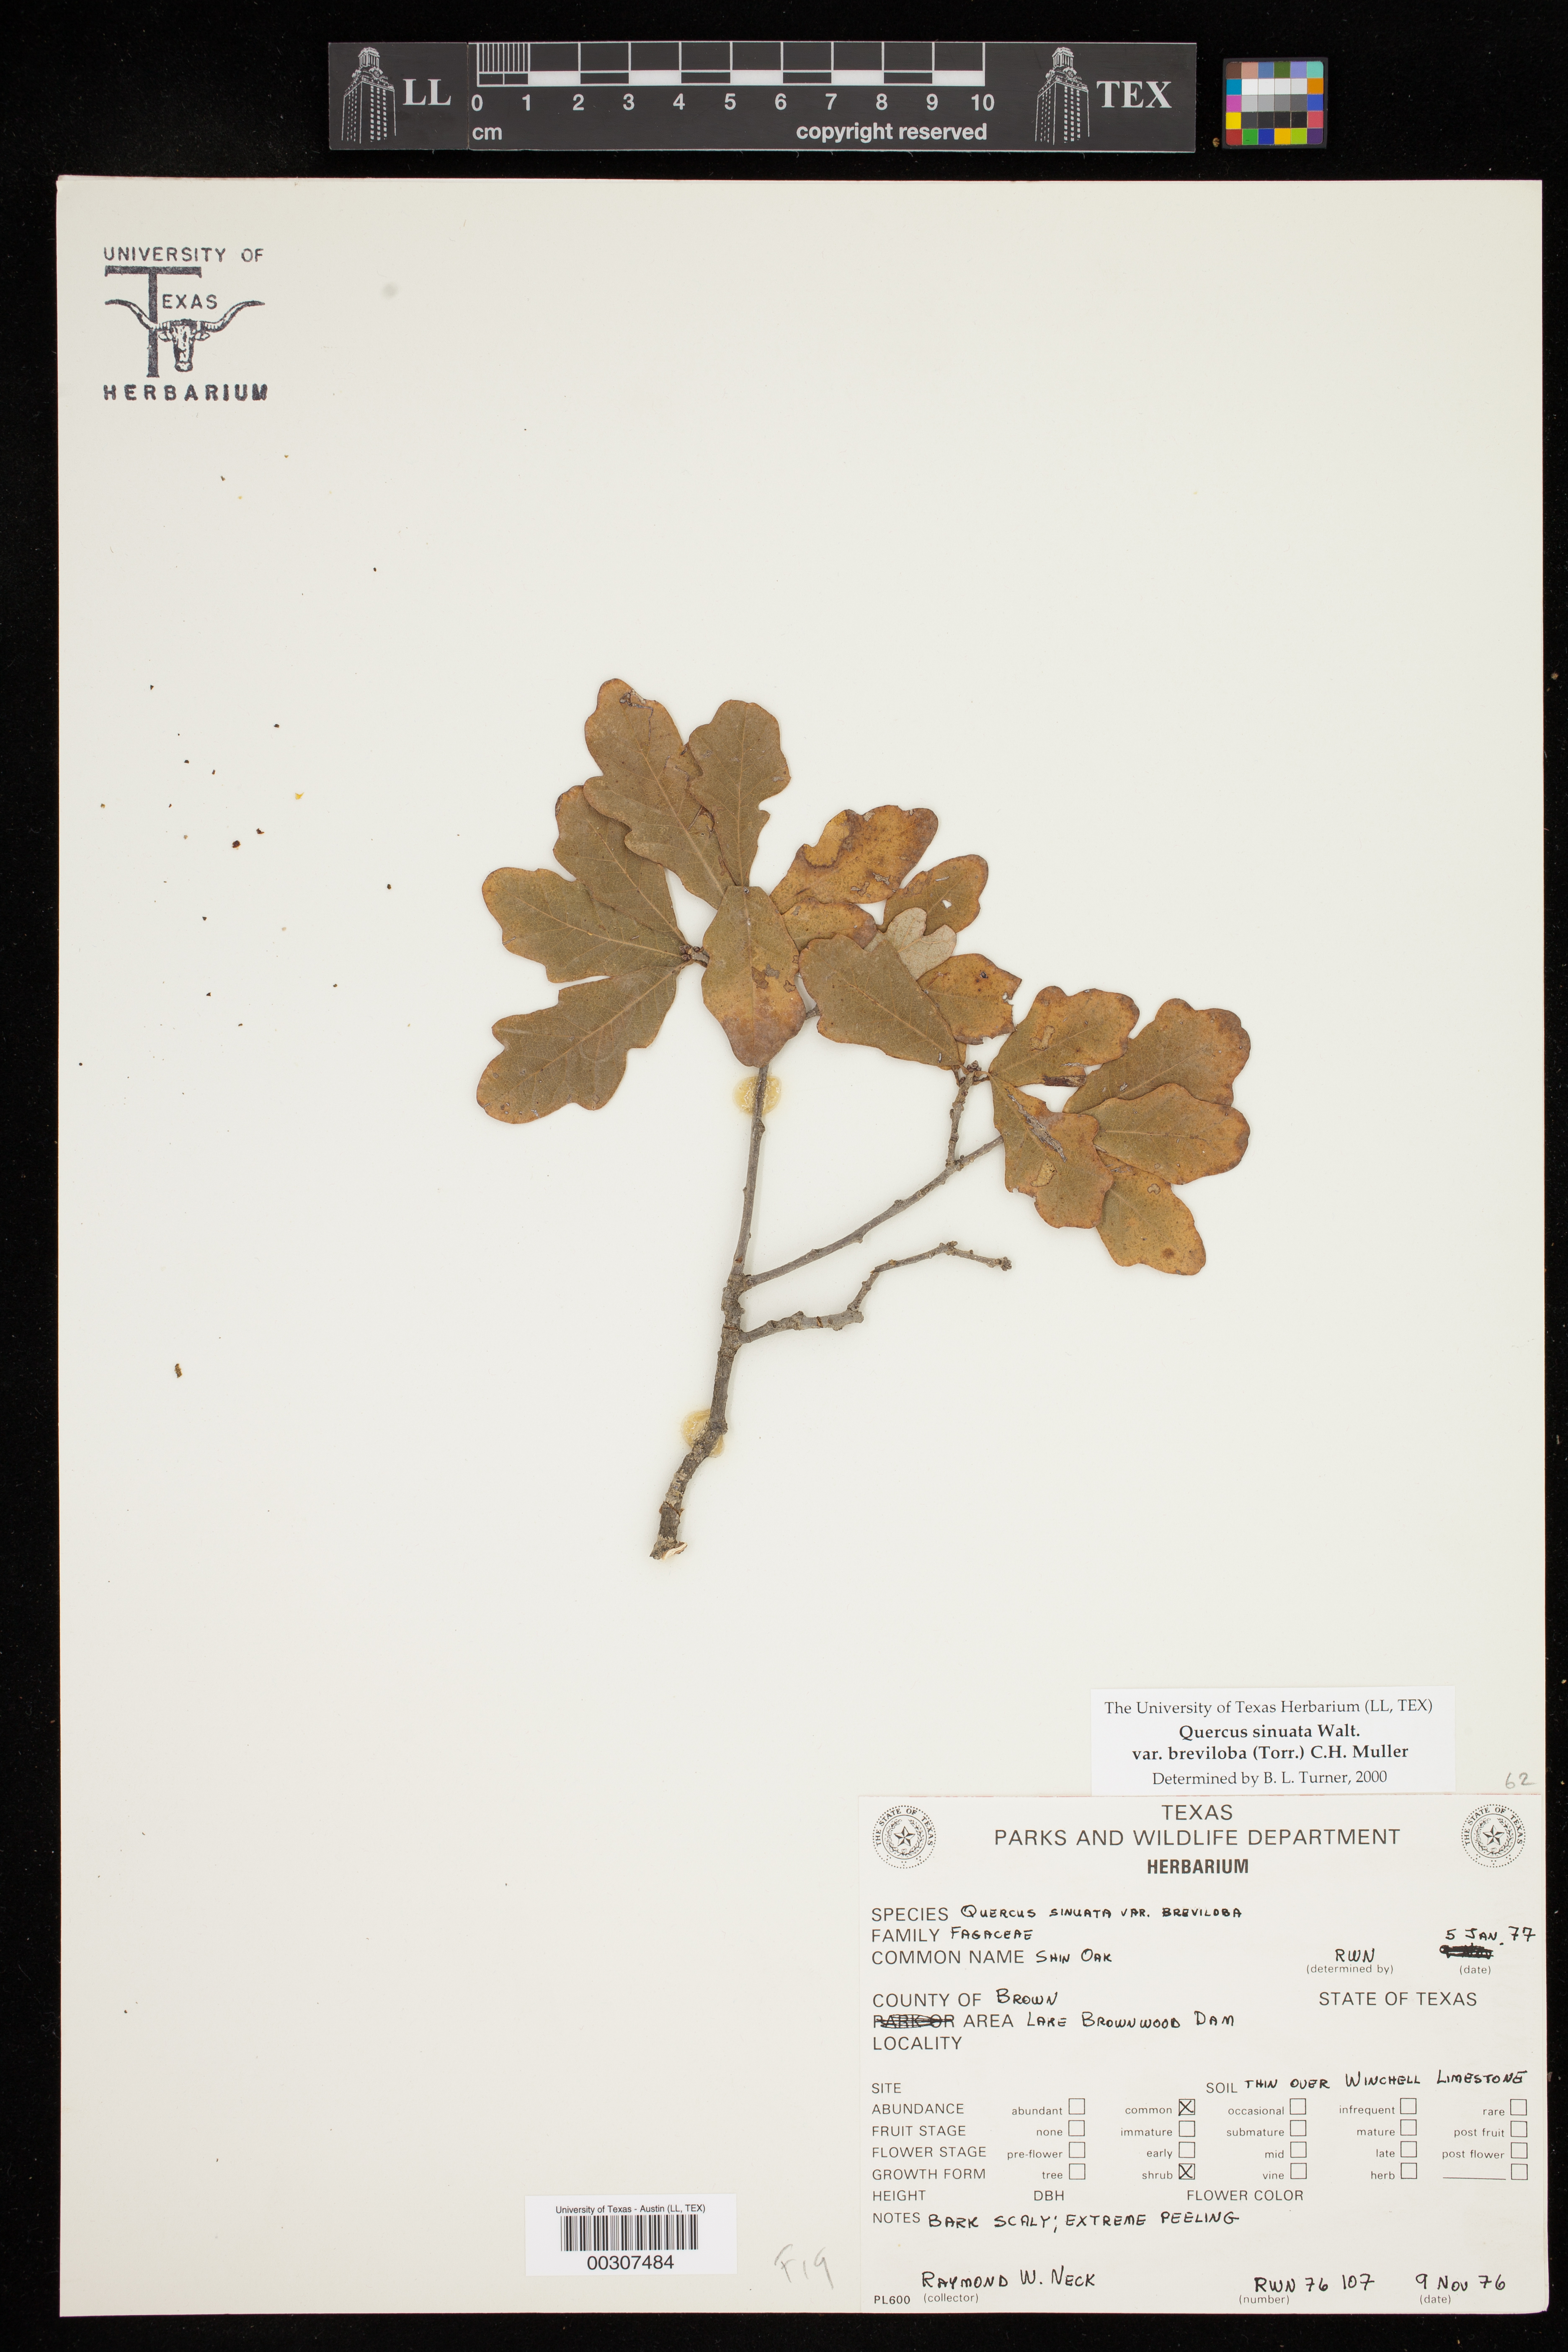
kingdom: Plantae
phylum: Tracheophyta
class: Magnoliopsida
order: Fagales
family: Fagaceae
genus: Quercus
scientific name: Quercus sinuata
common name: Durand oak
